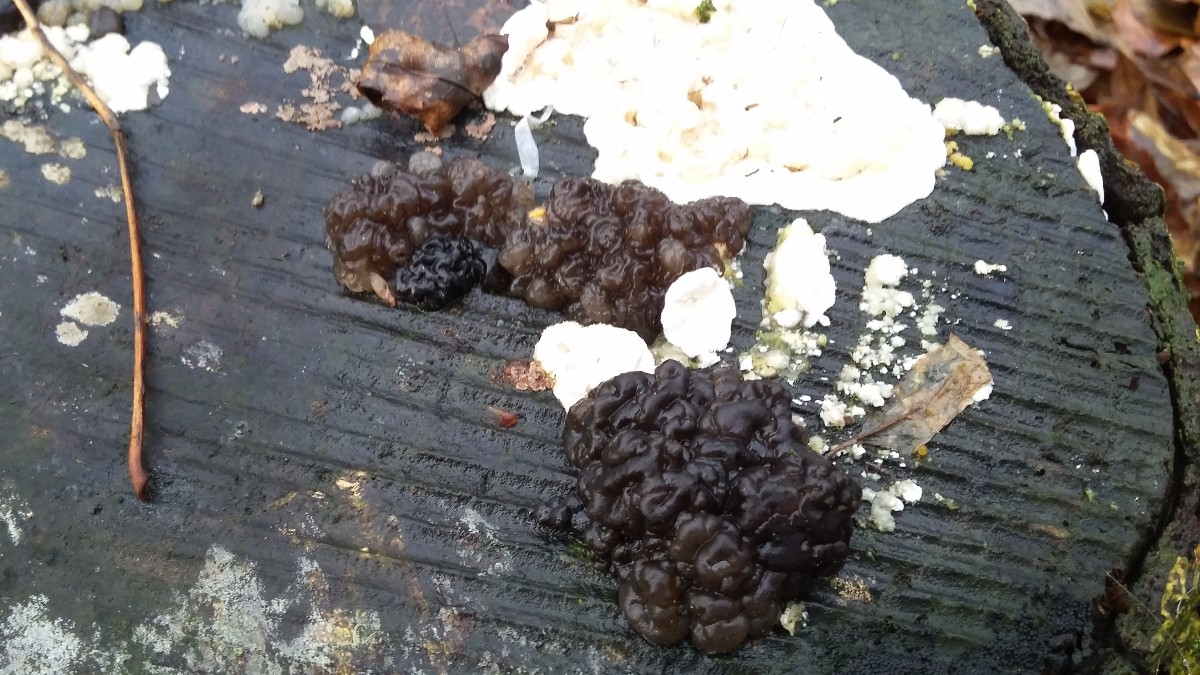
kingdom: Fungi
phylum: Basidiomycota
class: Agaricomycetes
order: Auriculariales
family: Auriculariaceae
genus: Exidia
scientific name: Exidia nigricans
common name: almindelig bævretop
